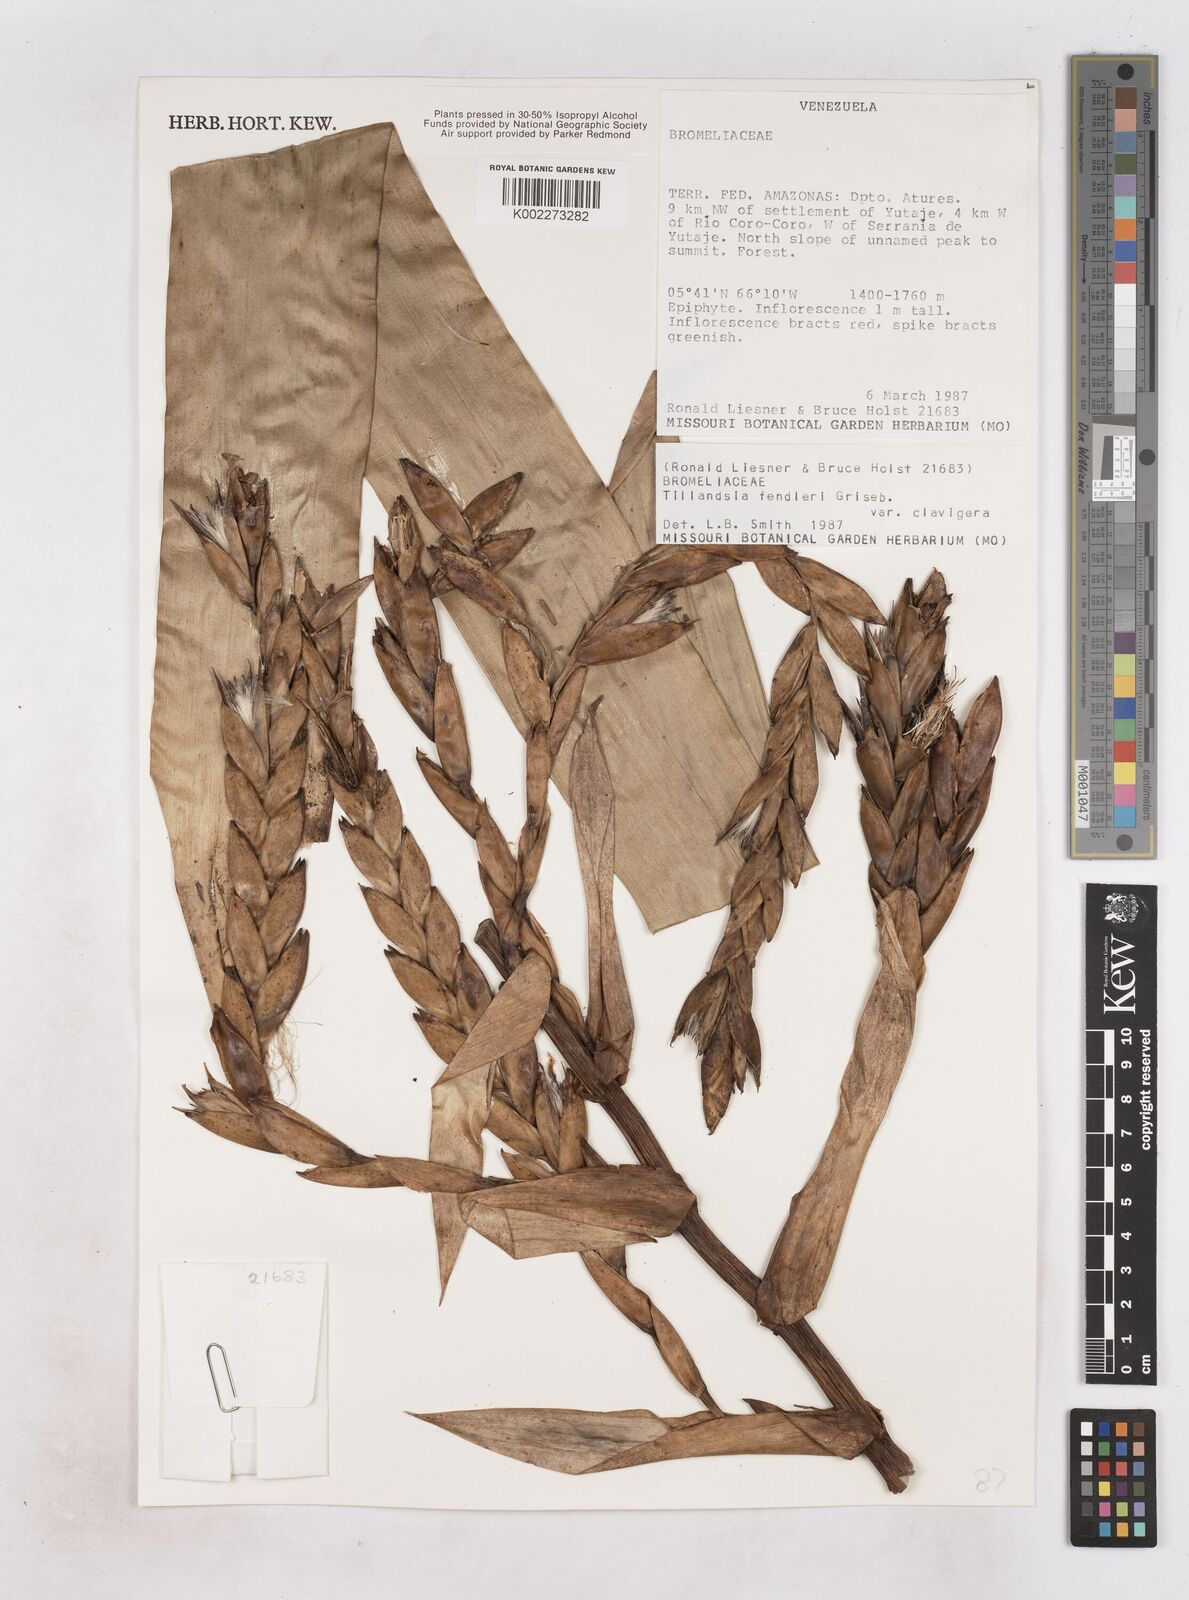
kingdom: Plantae
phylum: Tracheophyta
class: Liliopsida
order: Poales
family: Bromeliaceae
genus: Tillandsia
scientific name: Tillandsia fendleri
